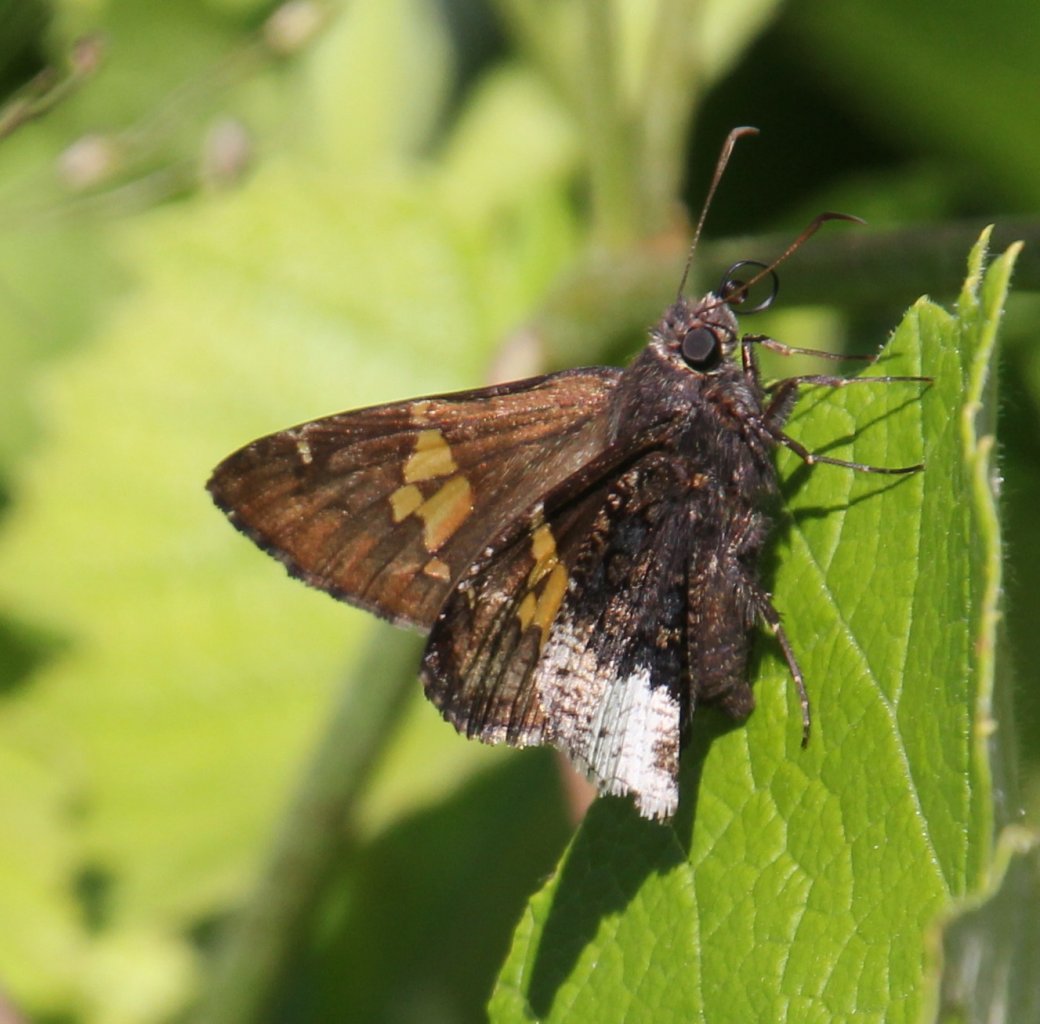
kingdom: Animalia
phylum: Arthropoda
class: Insecta
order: Lepidoptera
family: Hesperiidae
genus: Achalarus
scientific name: Achalarus lyciades
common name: Hoary Edge
